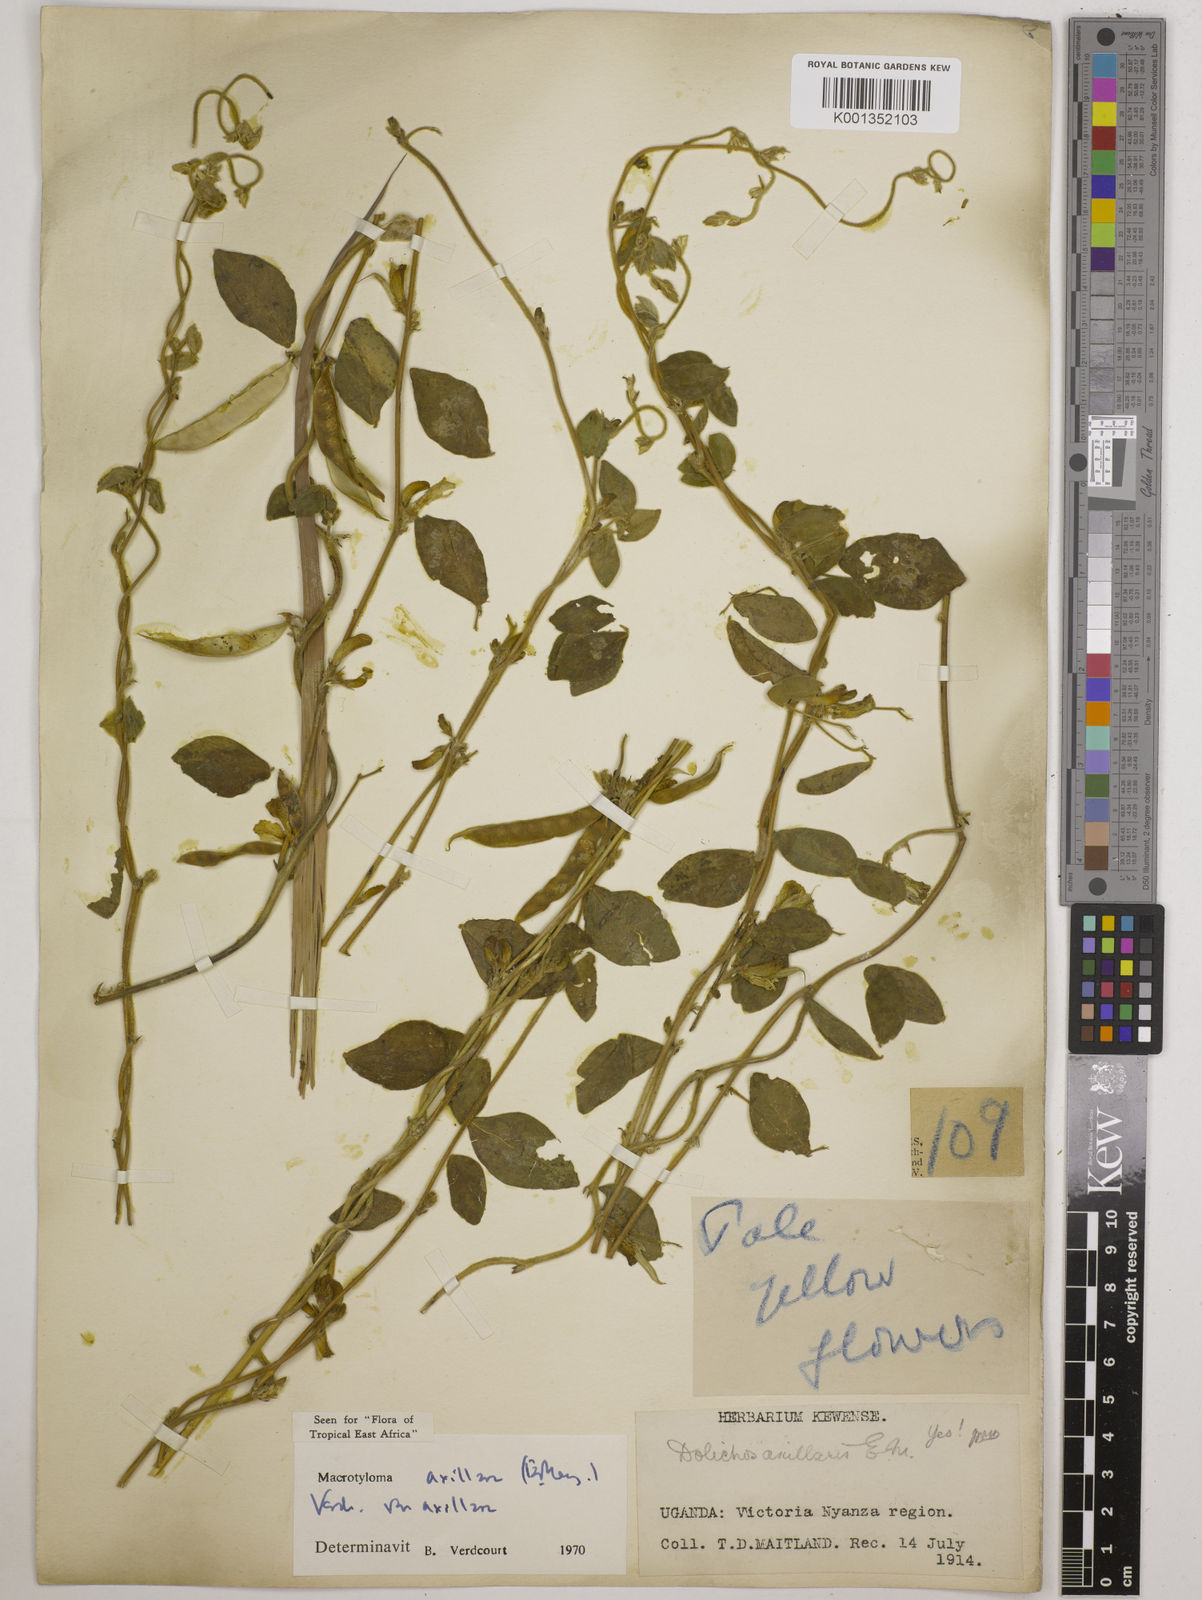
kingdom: Plantae
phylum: Tracheophyta
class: Magnoliopsida
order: Fabales
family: Fabaceae
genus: Macrotyloma
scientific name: Macrotyloma axillare
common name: Perennial horsegram
